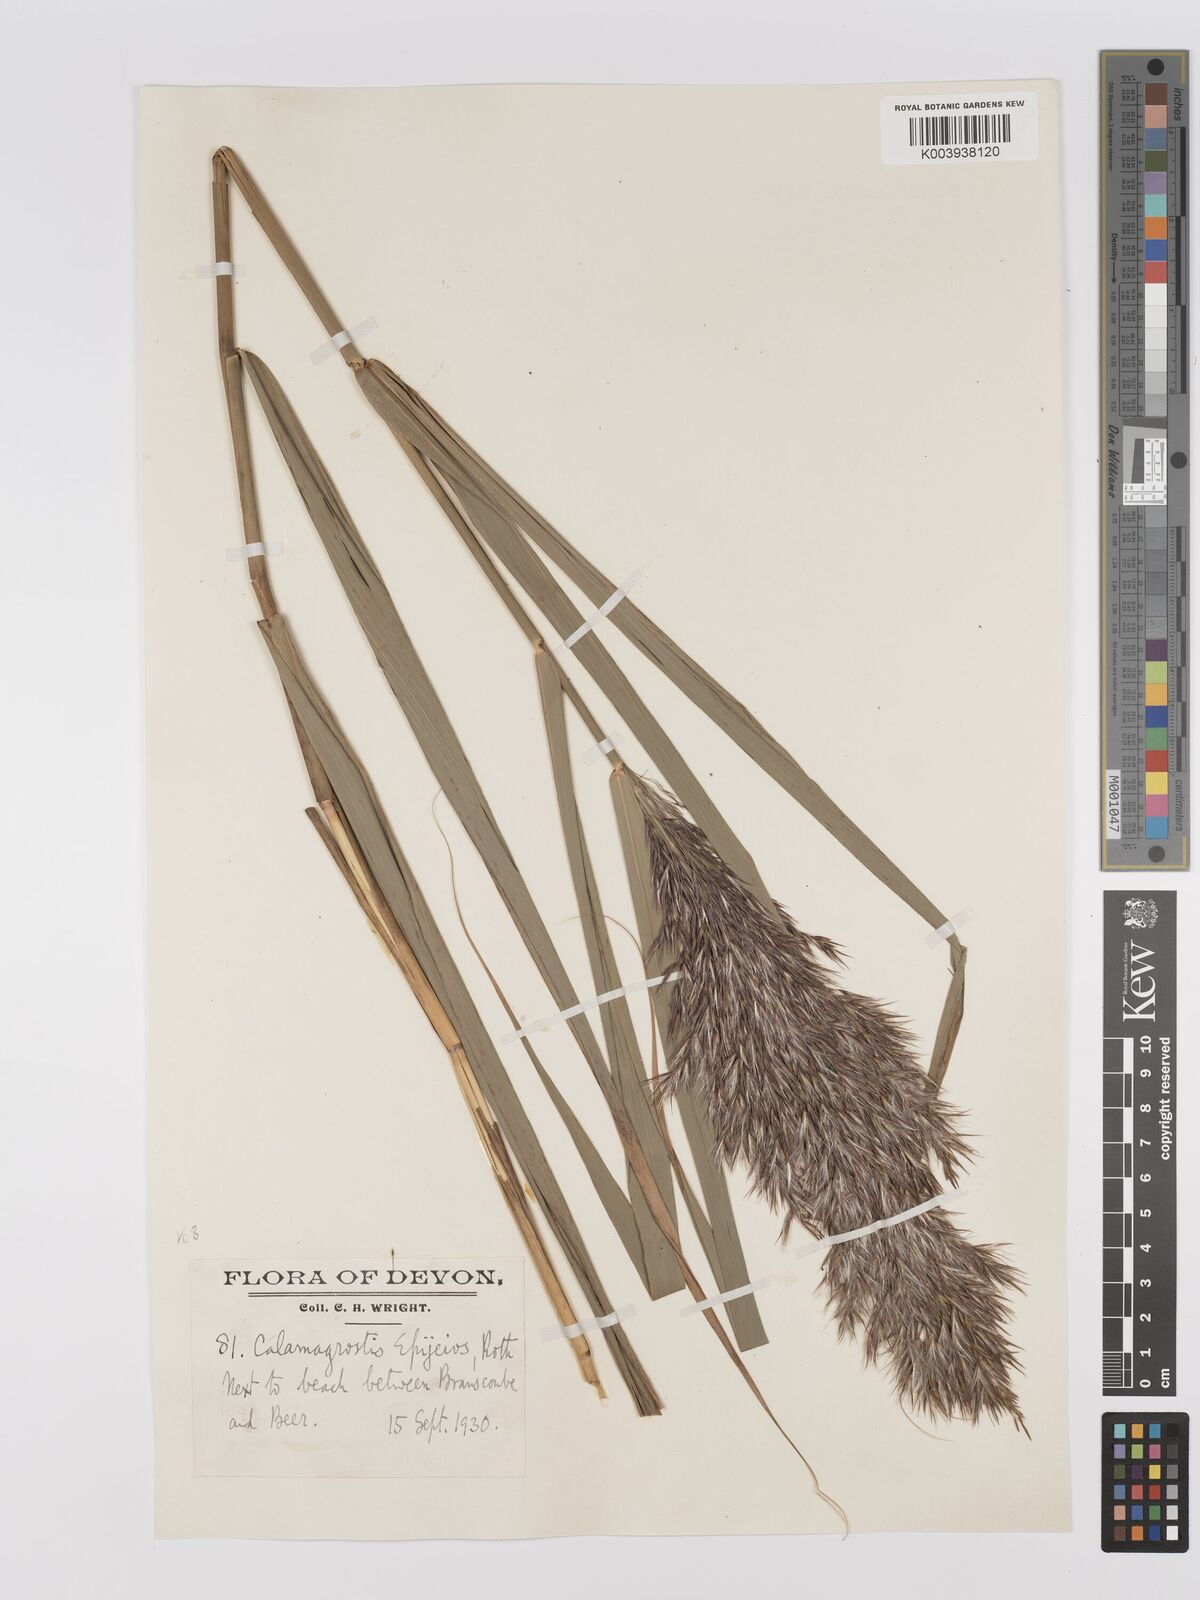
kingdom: Plantae
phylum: Tracheophyta
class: Liliopsida
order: Poales
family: Poaceae
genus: Phragmites
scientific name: Phragmites australis
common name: Common reed
